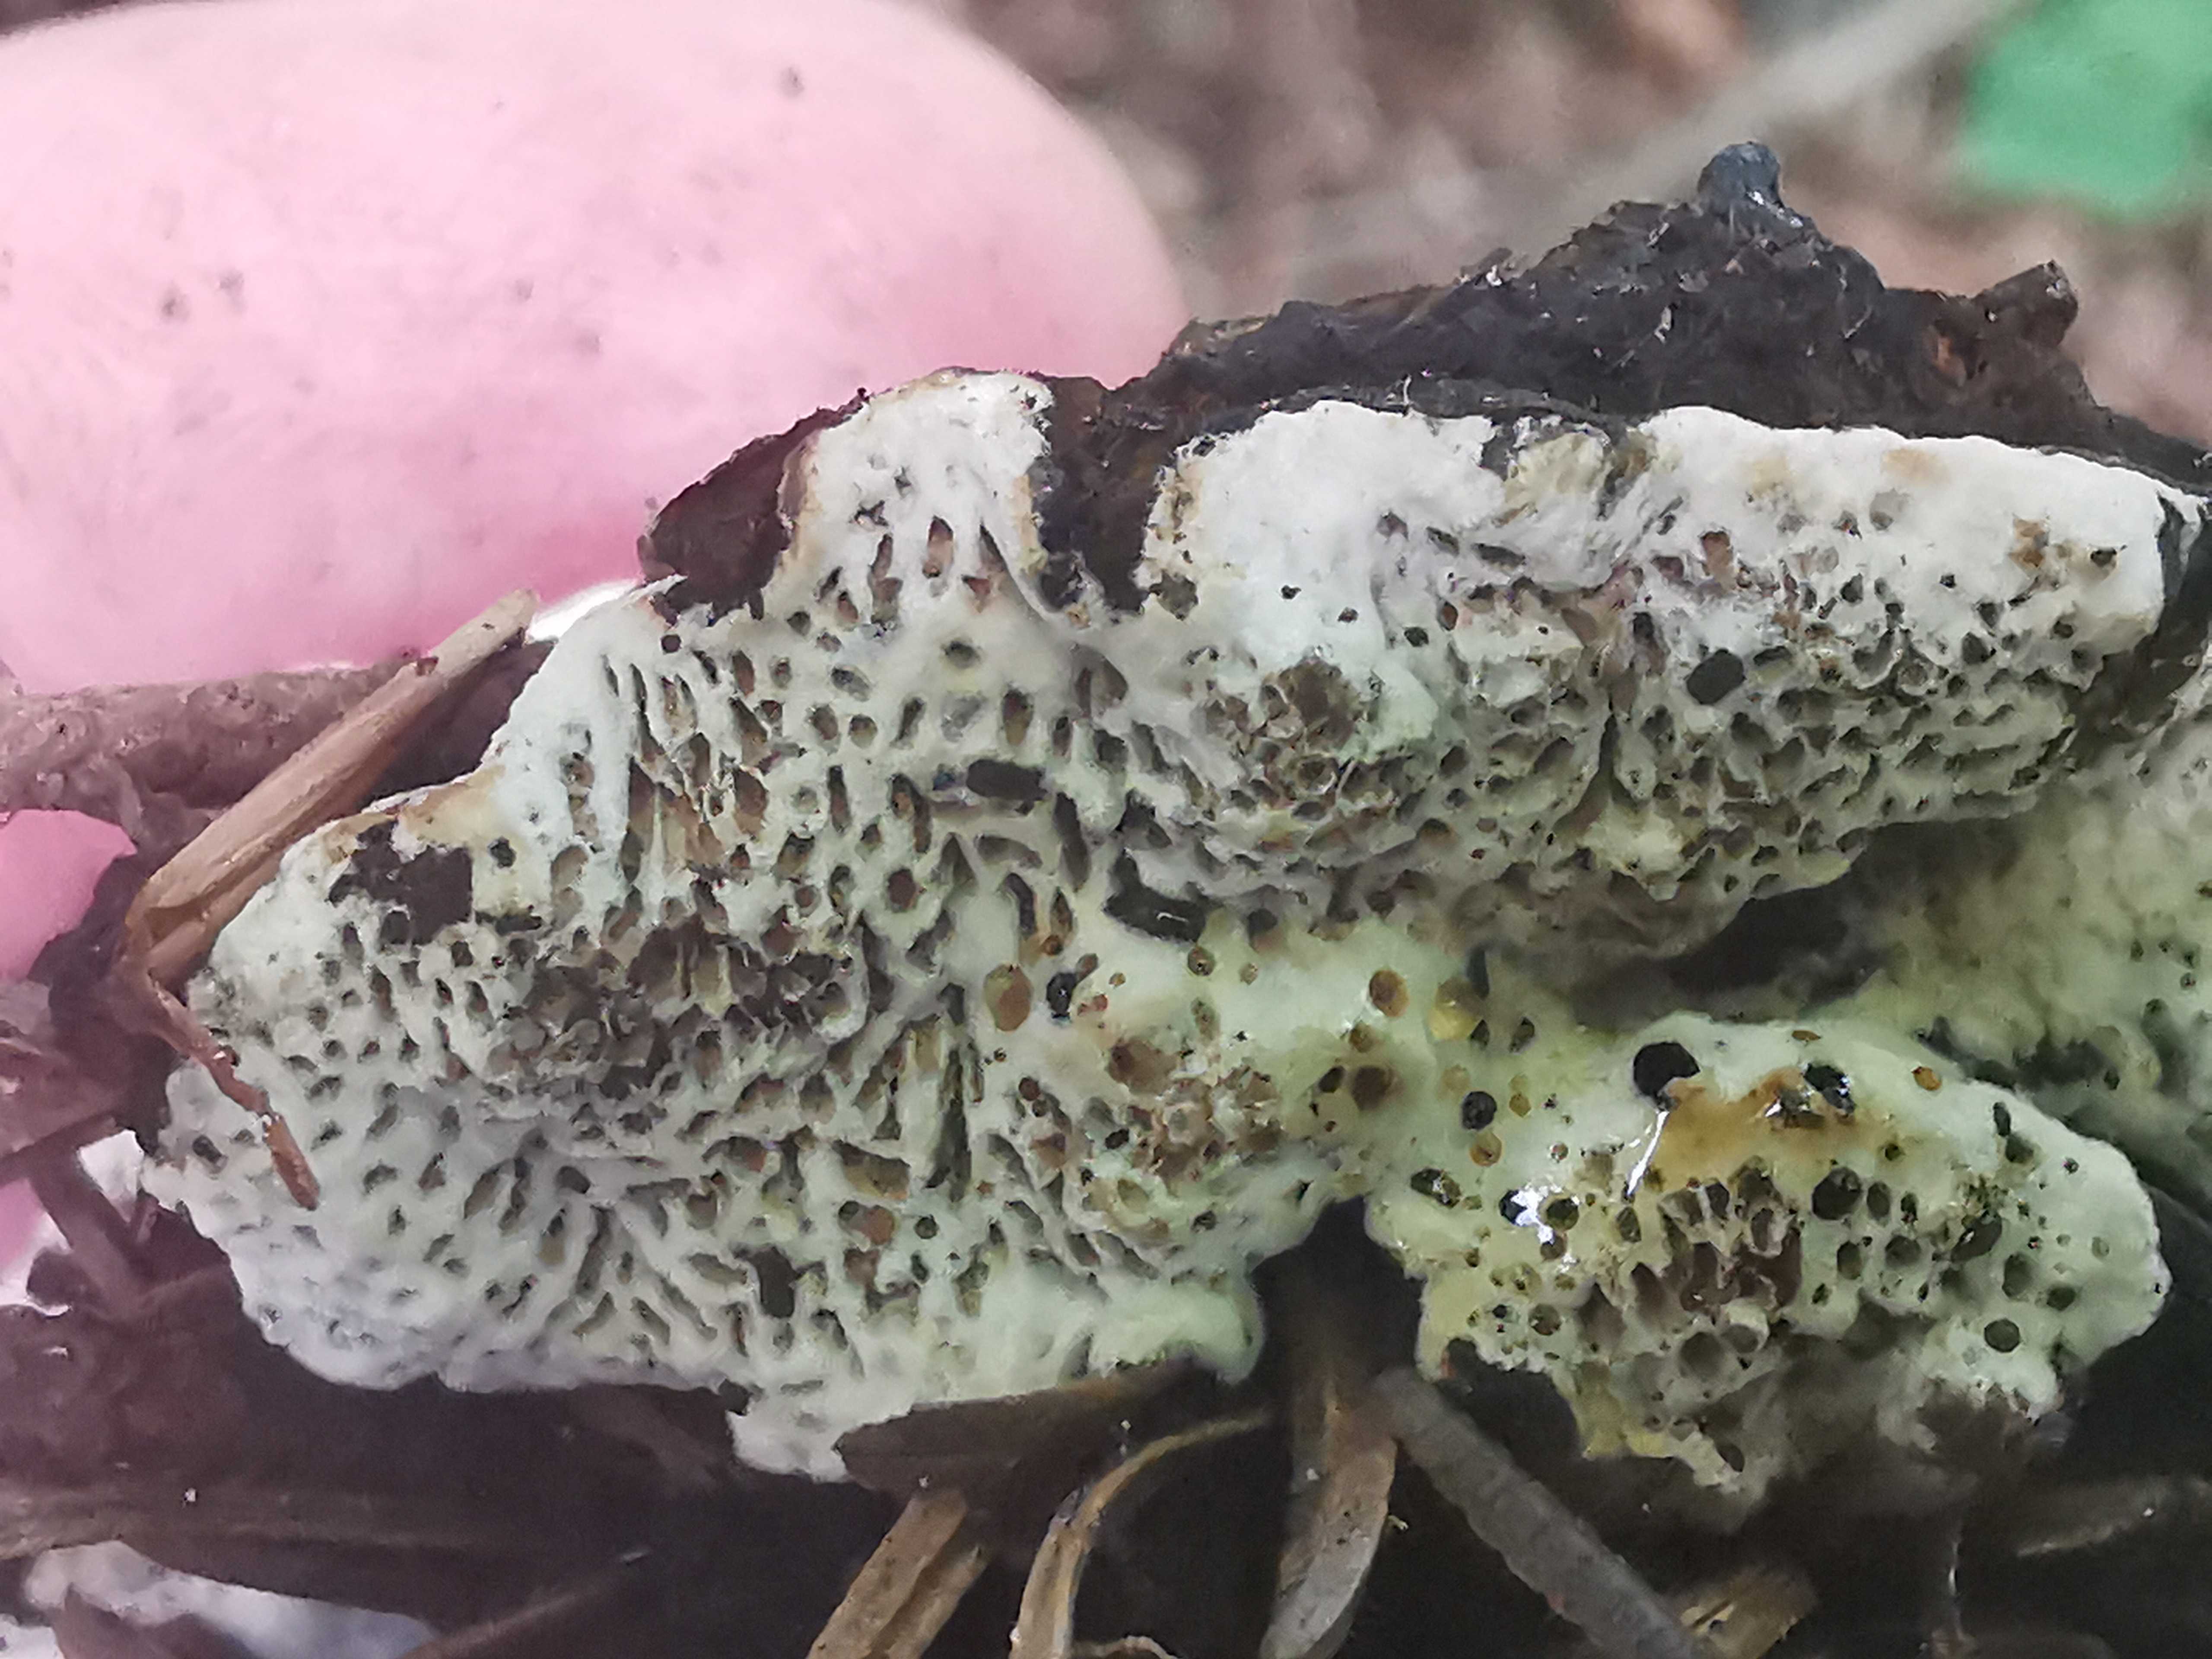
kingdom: Fungi
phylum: Basidiomycota
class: Agaricomycetes
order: Polyporales
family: Polyporaceae
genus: Podofomes
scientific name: Podofomes mollis
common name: blød begporesvamp
